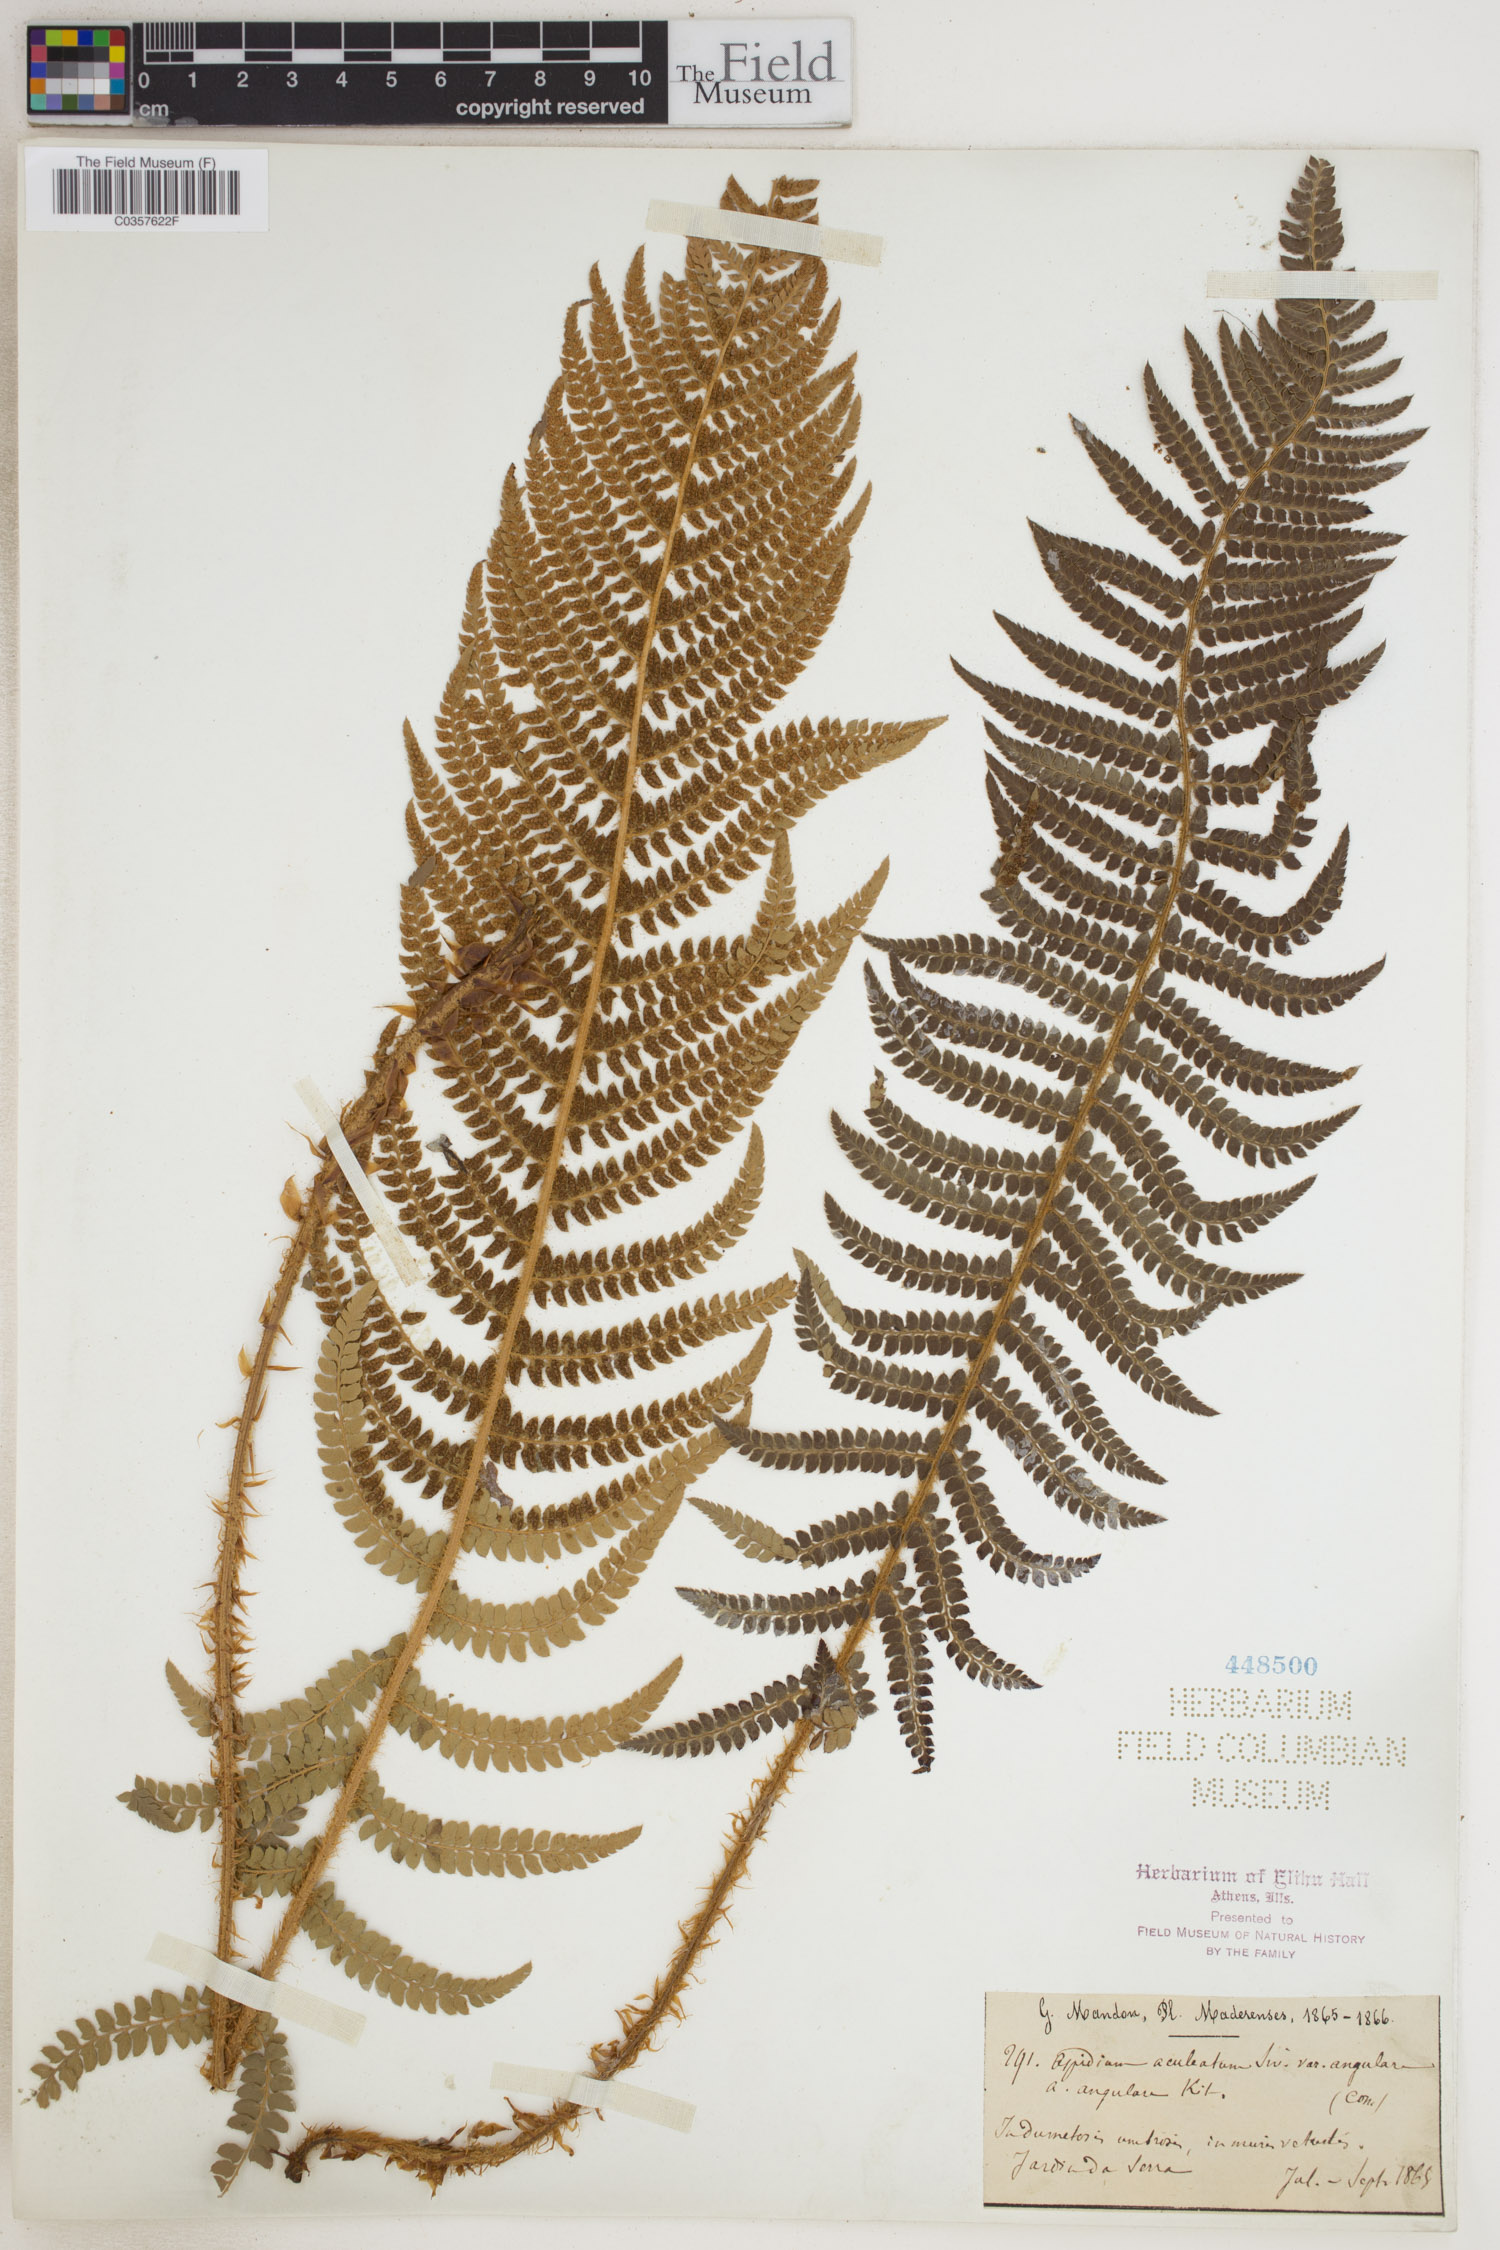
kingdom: Plantae
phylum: Tracheophyta
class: Polypodiopsida
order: Polypodiales
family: Dryopteridaceae
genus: Polystichum
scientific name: Polystichum aculeatum
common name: Hard shield-fern
